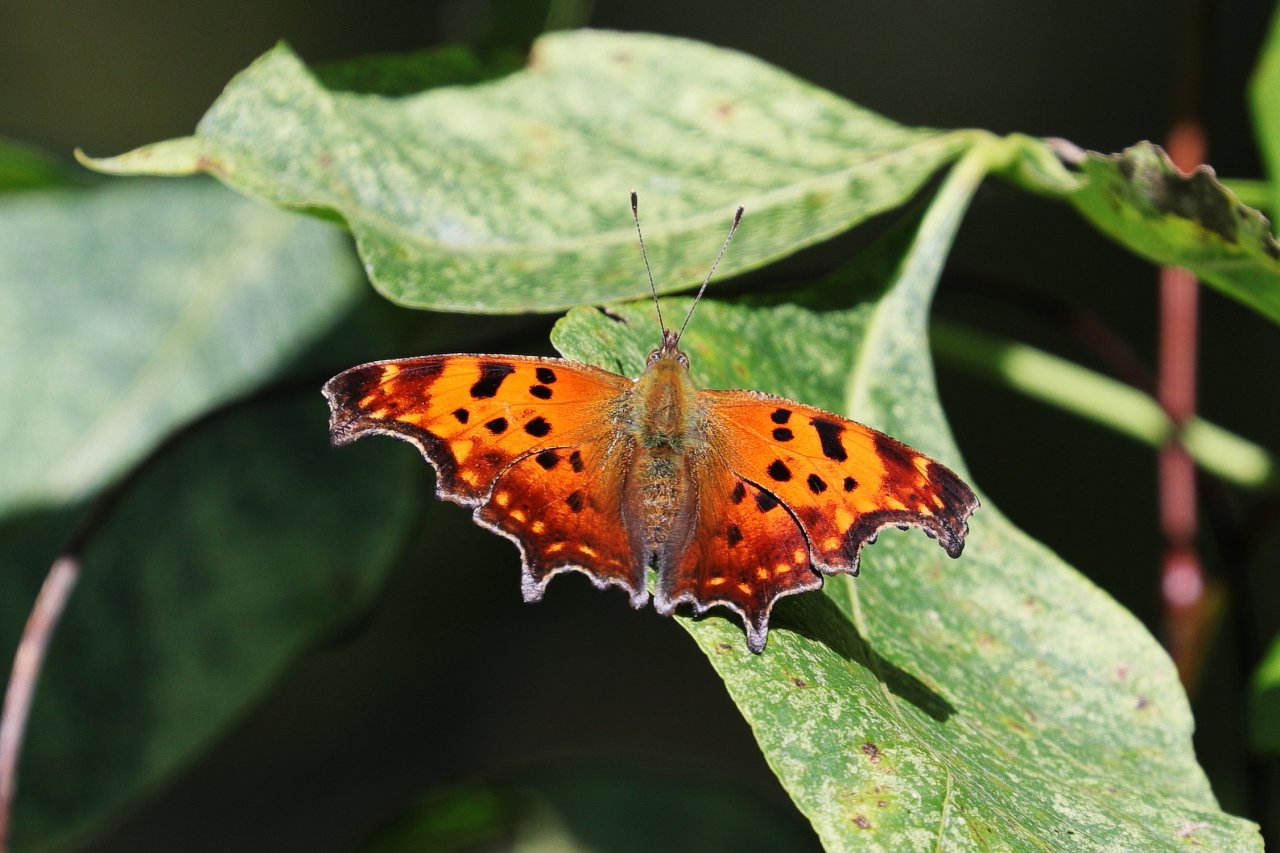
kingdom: Animalia
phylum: Arthropoda
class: Insecta
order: Lepidoptera
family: Nymphalidae
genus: Polygonia
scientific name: Polygonia comma
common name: Eastern Comma
